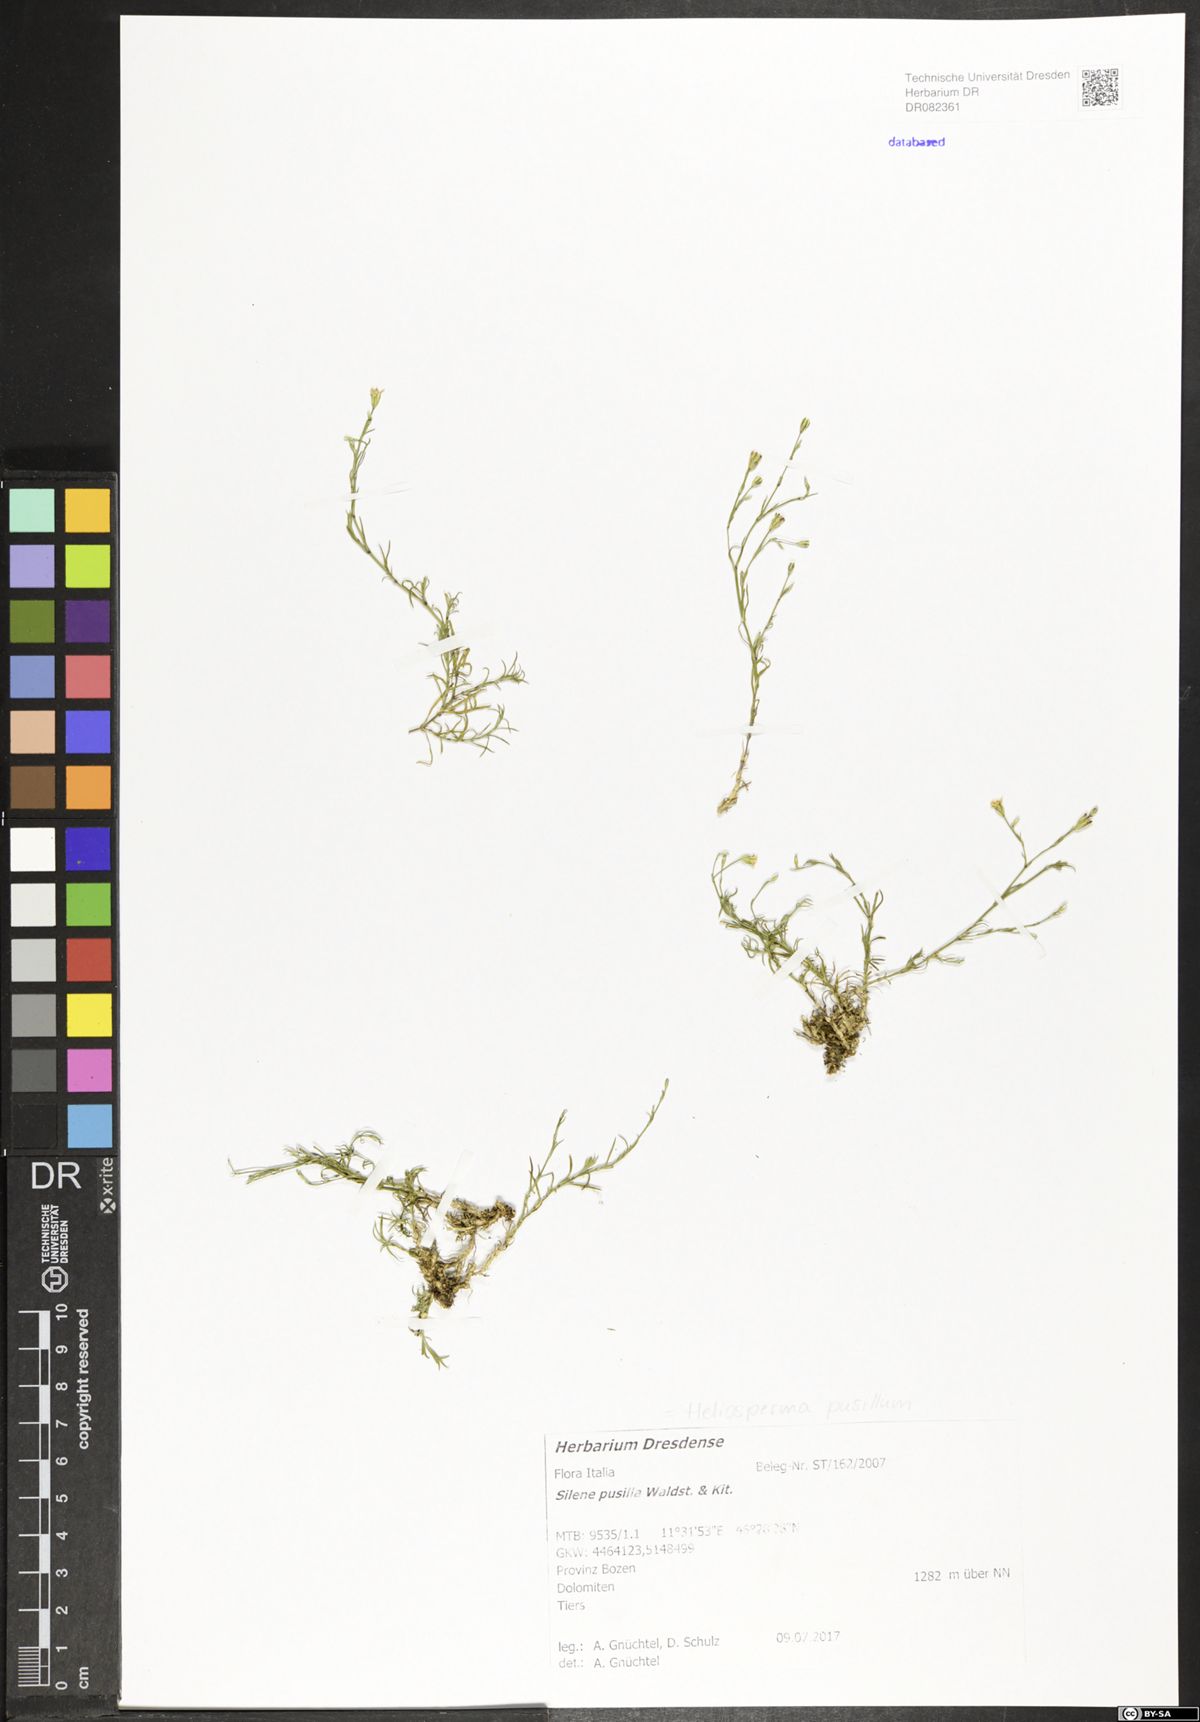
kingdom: Plantae
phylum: Tracheophyta
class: Magnoliopsida
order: Caryophyllales
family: Caryophyllaceae
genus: Heliosperma
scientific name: Heliosperma pusillum
